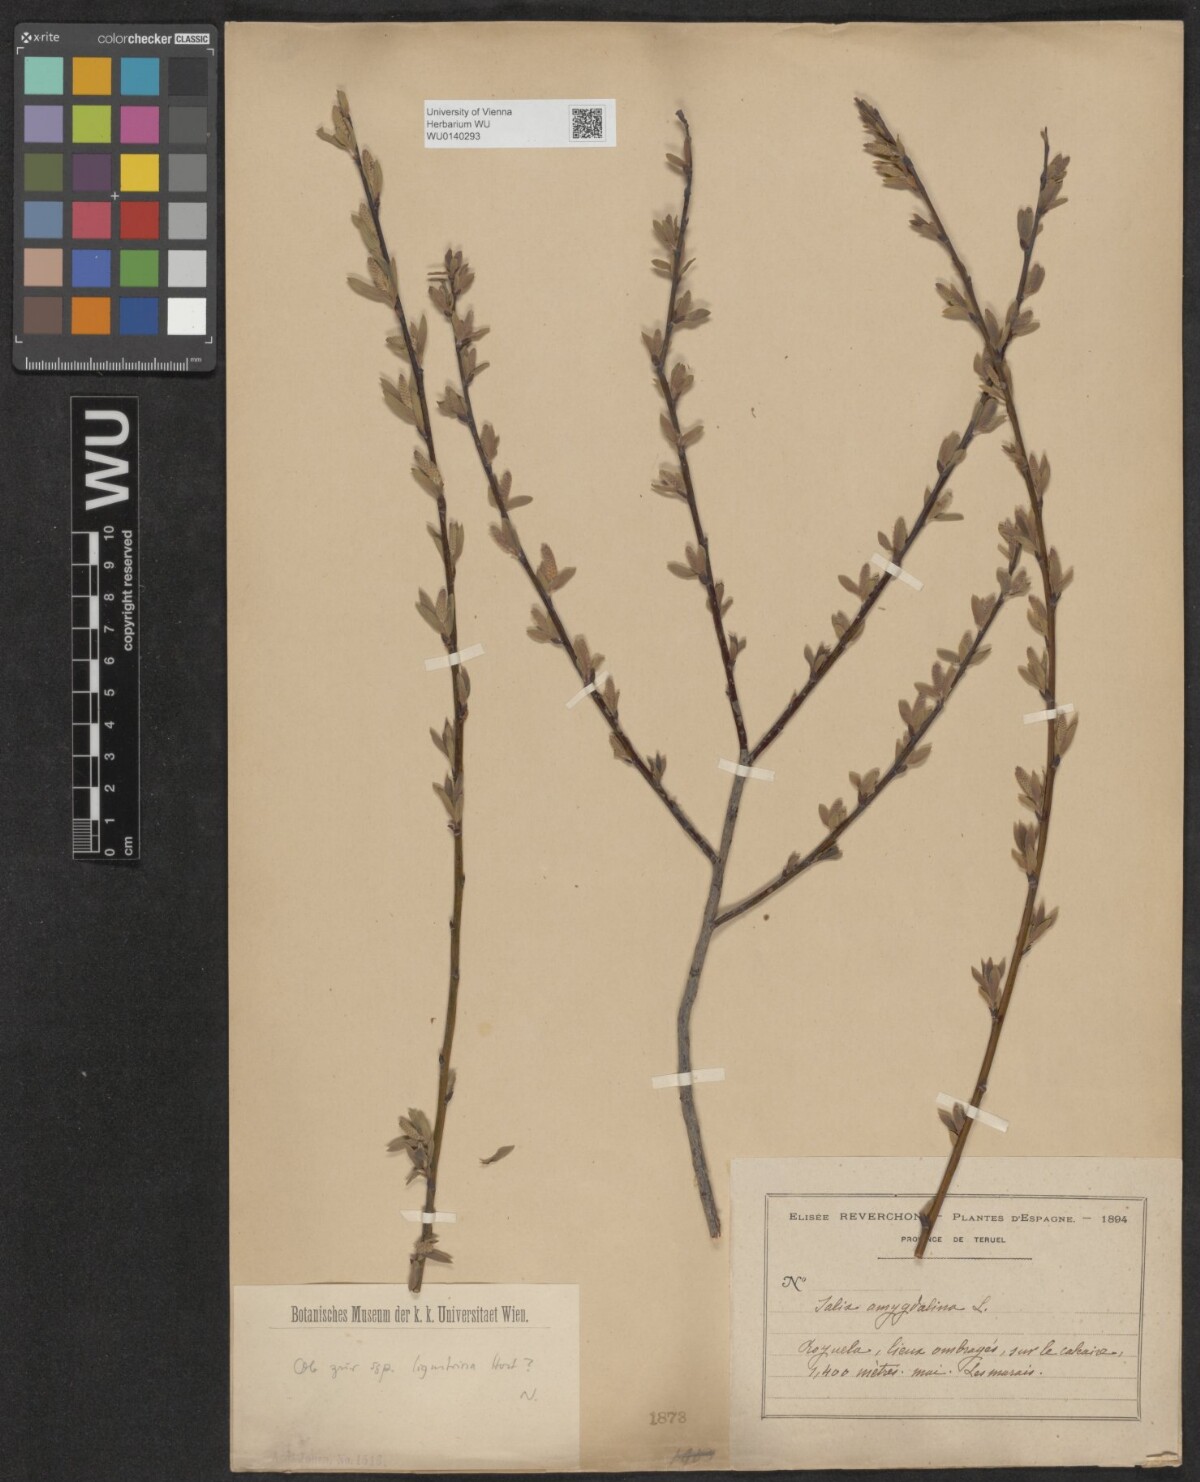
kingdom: Plantae
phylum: Tracheophyta
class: Magnoliopsida
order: Malpighiales
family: Salicaceae
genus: Salix
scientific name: Salix triandra
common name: Almond willow
